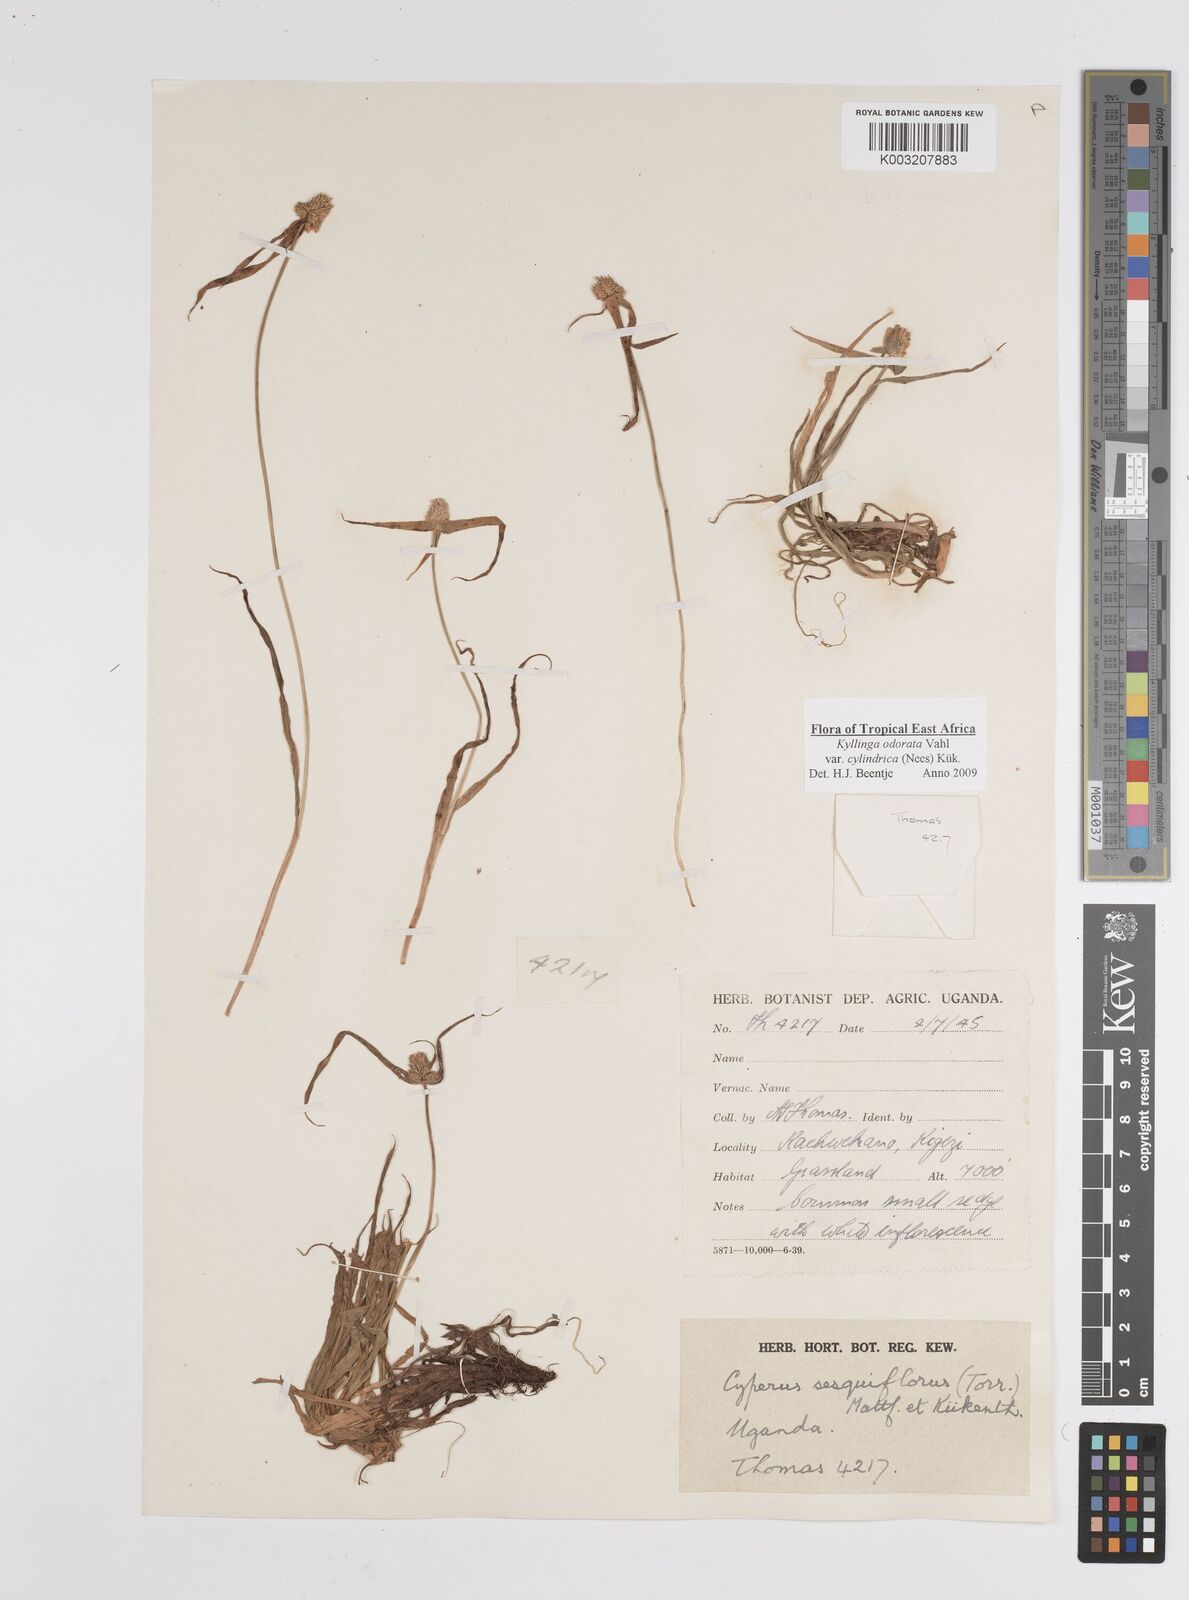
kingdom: Plantae
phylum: Tracheophyta
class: Liliopsida
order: Poales
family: Cyperaceae
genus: Cyperus
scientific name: Cyperus
